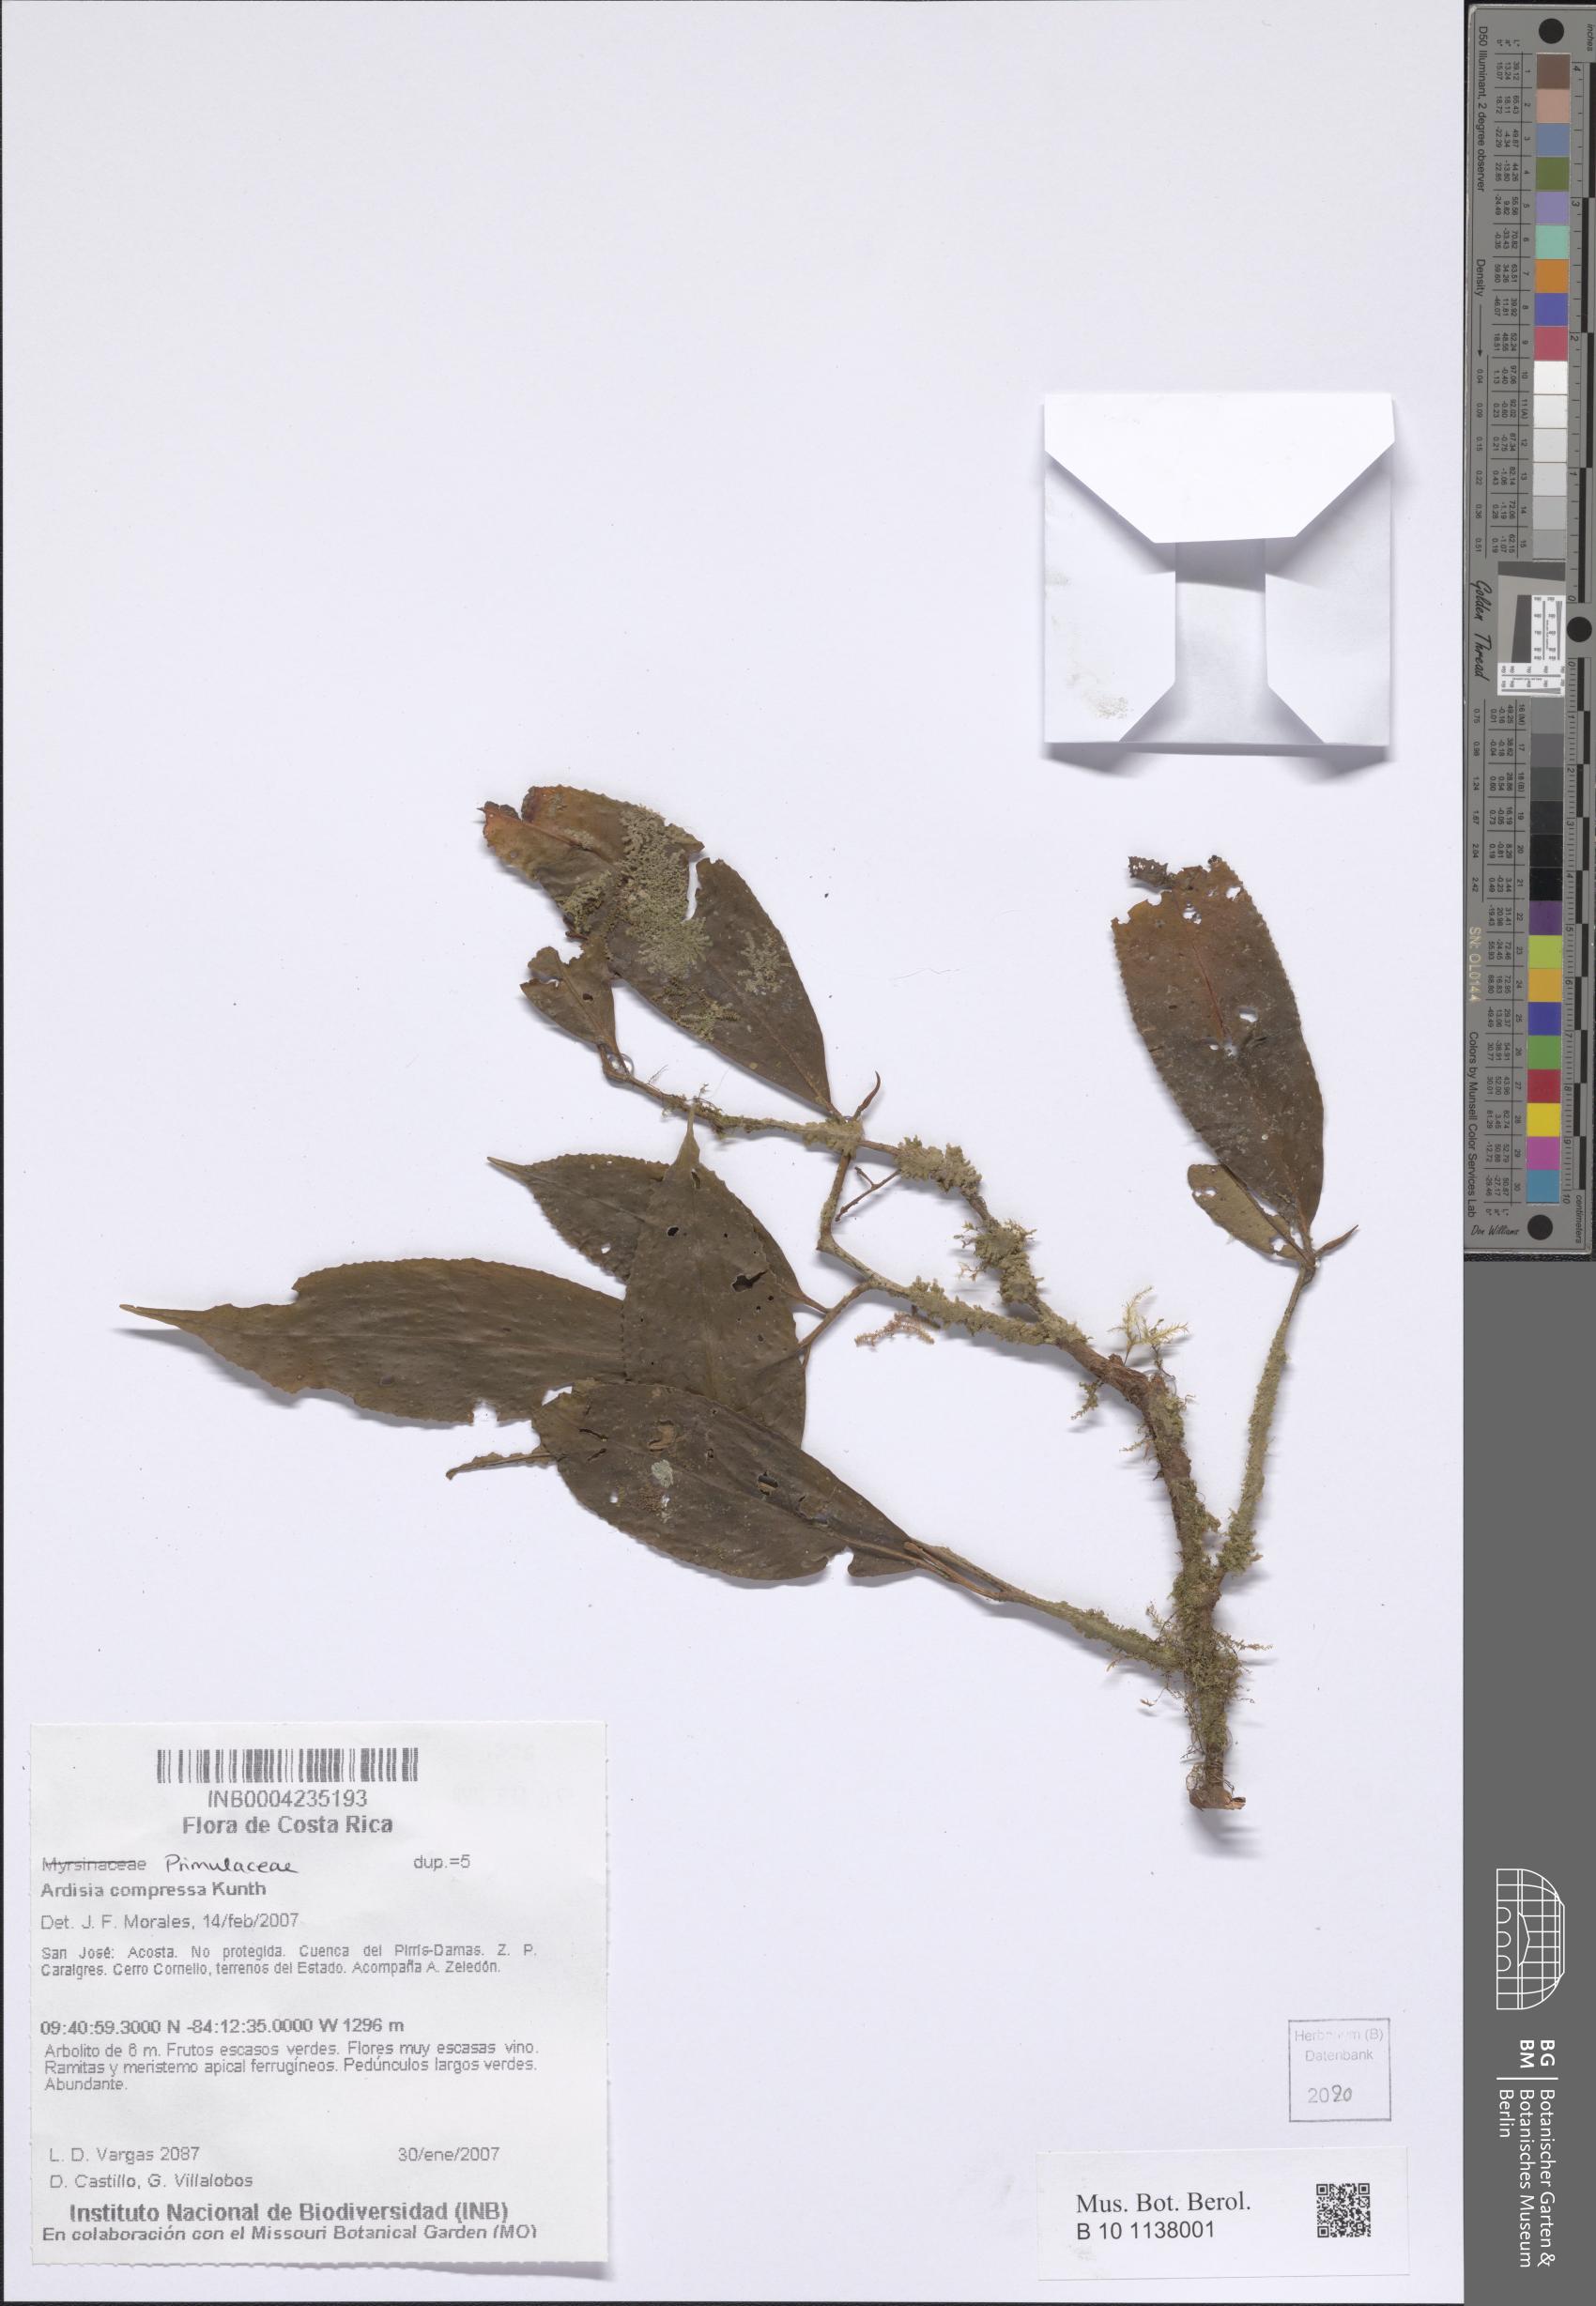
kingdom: Plantae
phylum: Tracheophyta
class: Magnoliopsida
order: Ericales
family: Primulaceae
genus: Ardisia
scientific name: Ardisia compressa
